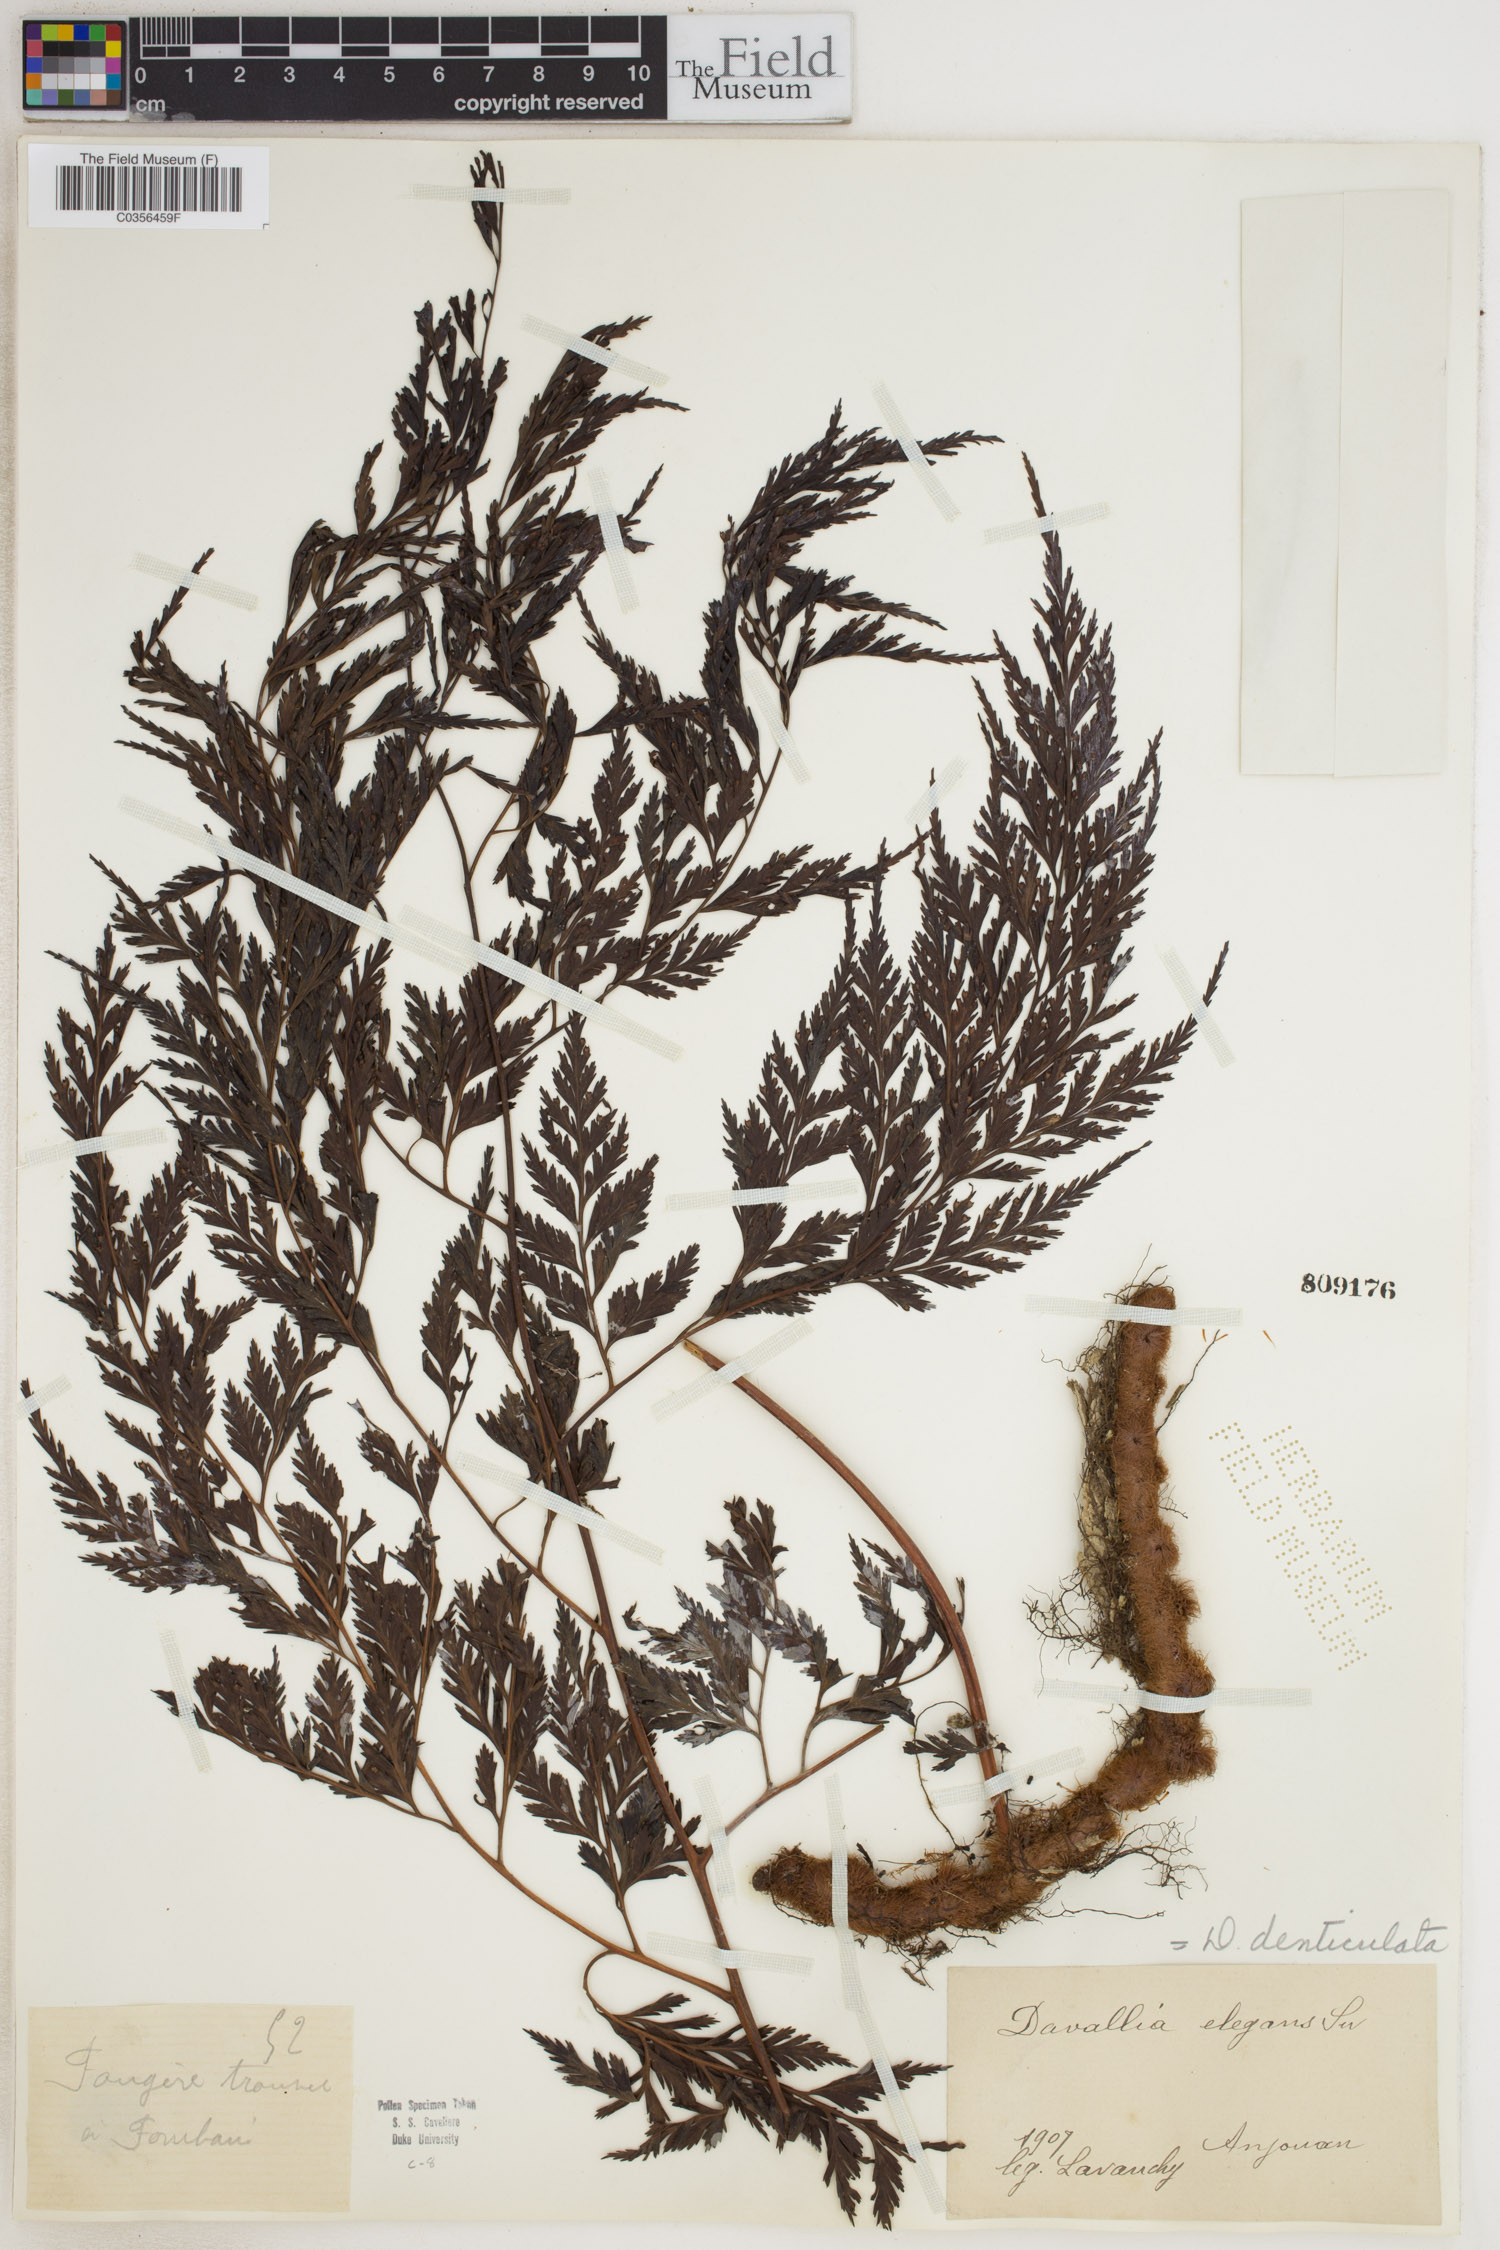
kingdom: Plantae
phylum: Tracheophyta
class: Polypodiopsida
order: Polypodiales
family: Davalliaceae
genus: Davallia
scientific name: Davallia denticulata
